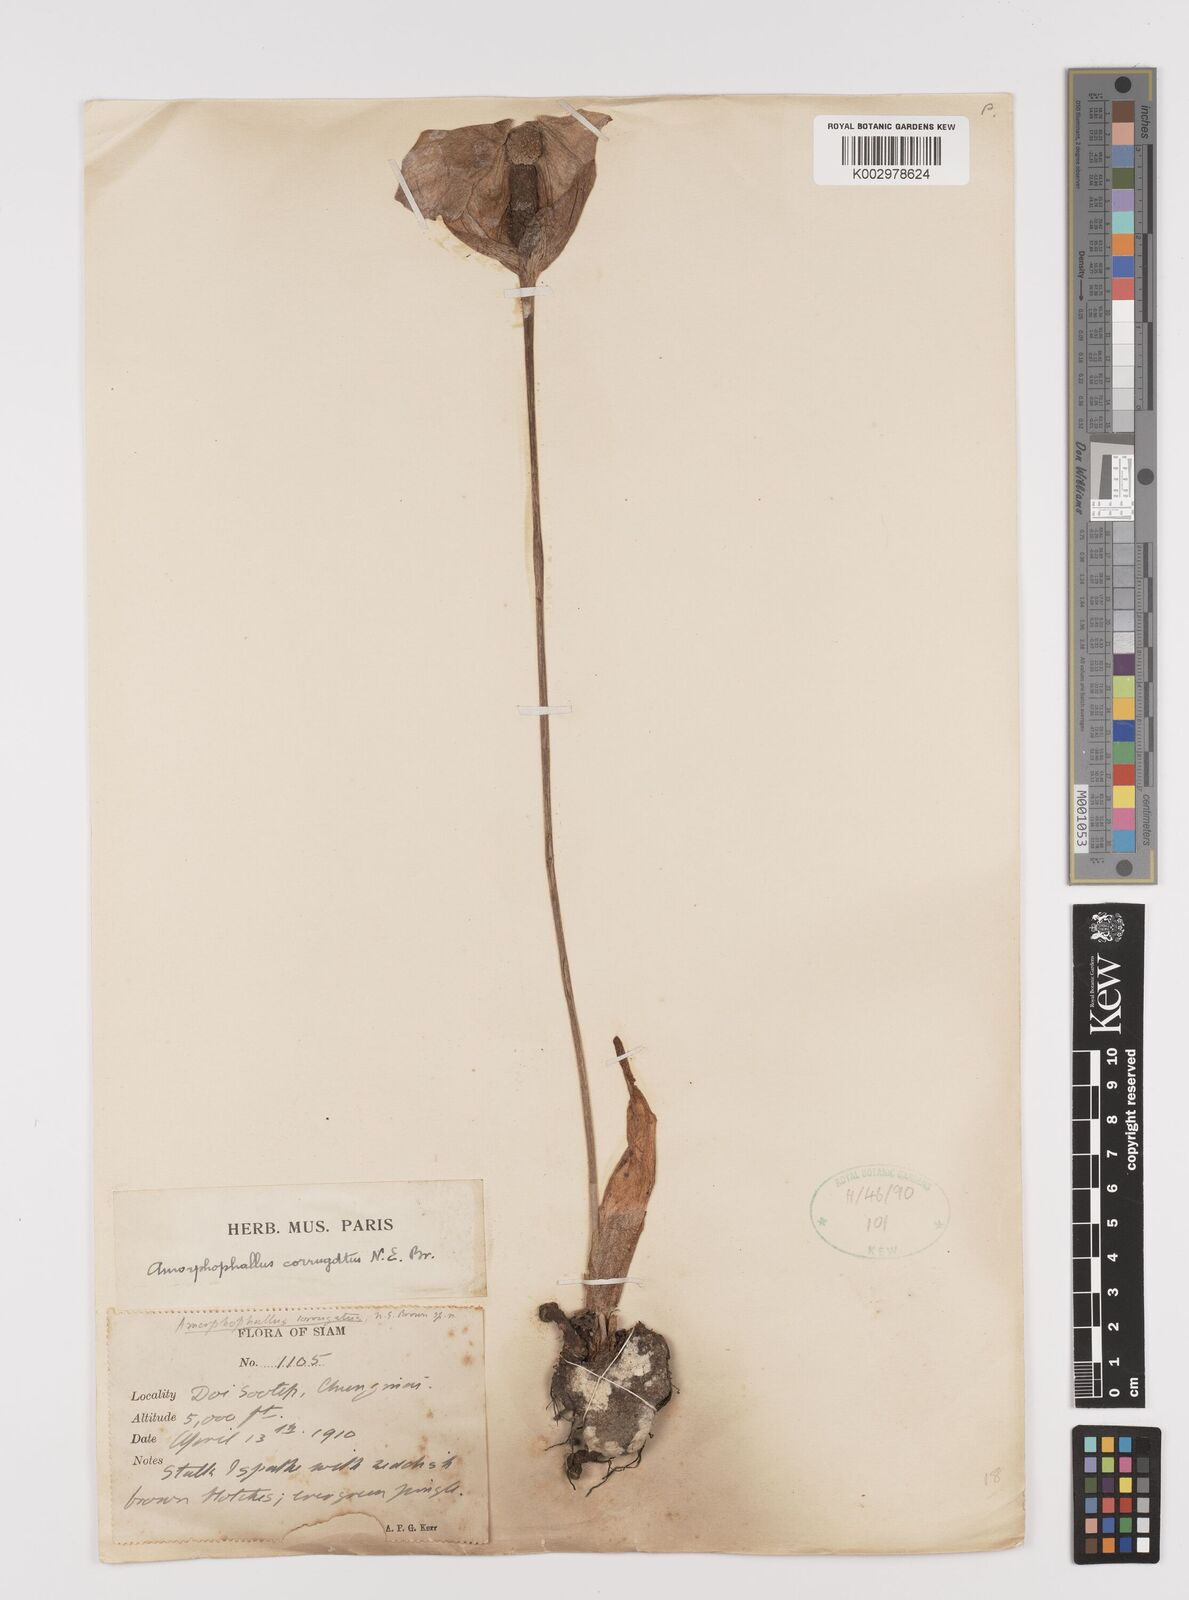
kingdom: Plantae
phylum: Tracheophyta
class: Liliopsida
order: Alismatales
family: Araceae
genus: Amorphophallus
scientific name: Amorphophallus corrugatus
